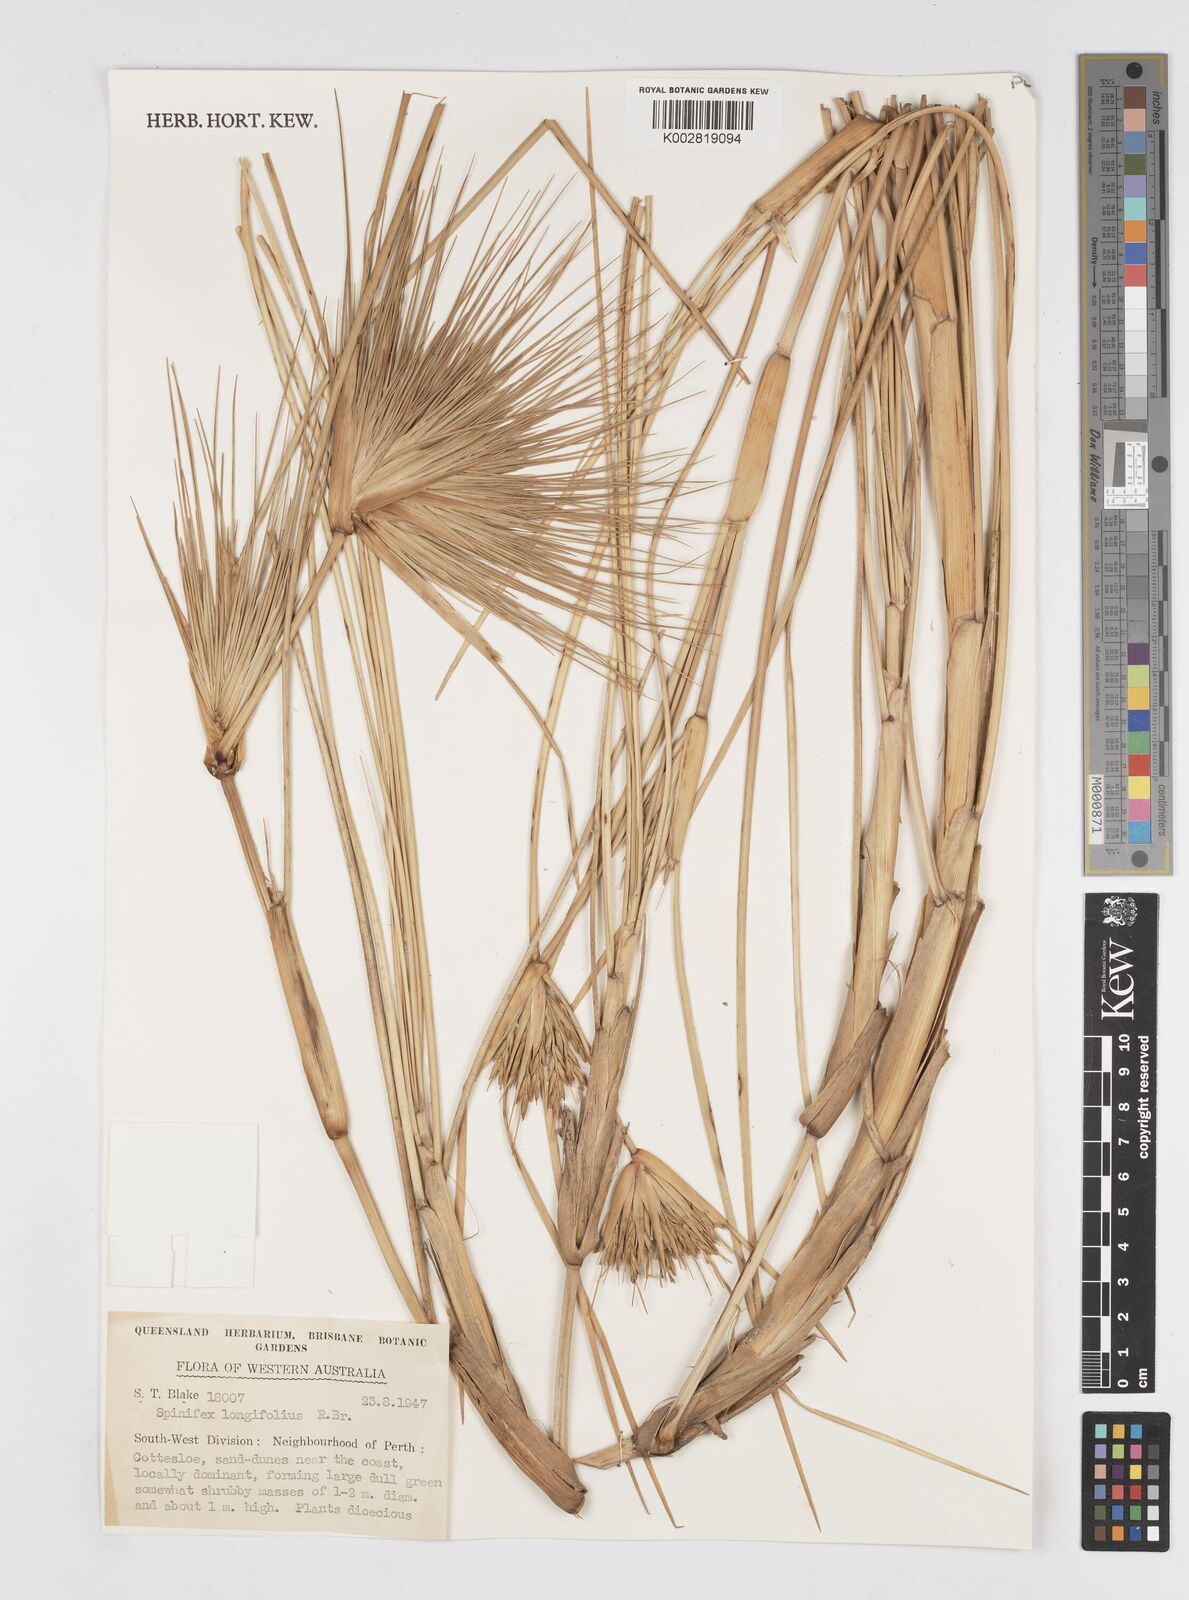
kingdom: Plantae
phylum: Tracheophyta
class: Liliopsida
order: Poales
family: Poaceae
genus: Spinifex
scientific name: Spinifex longifolius
